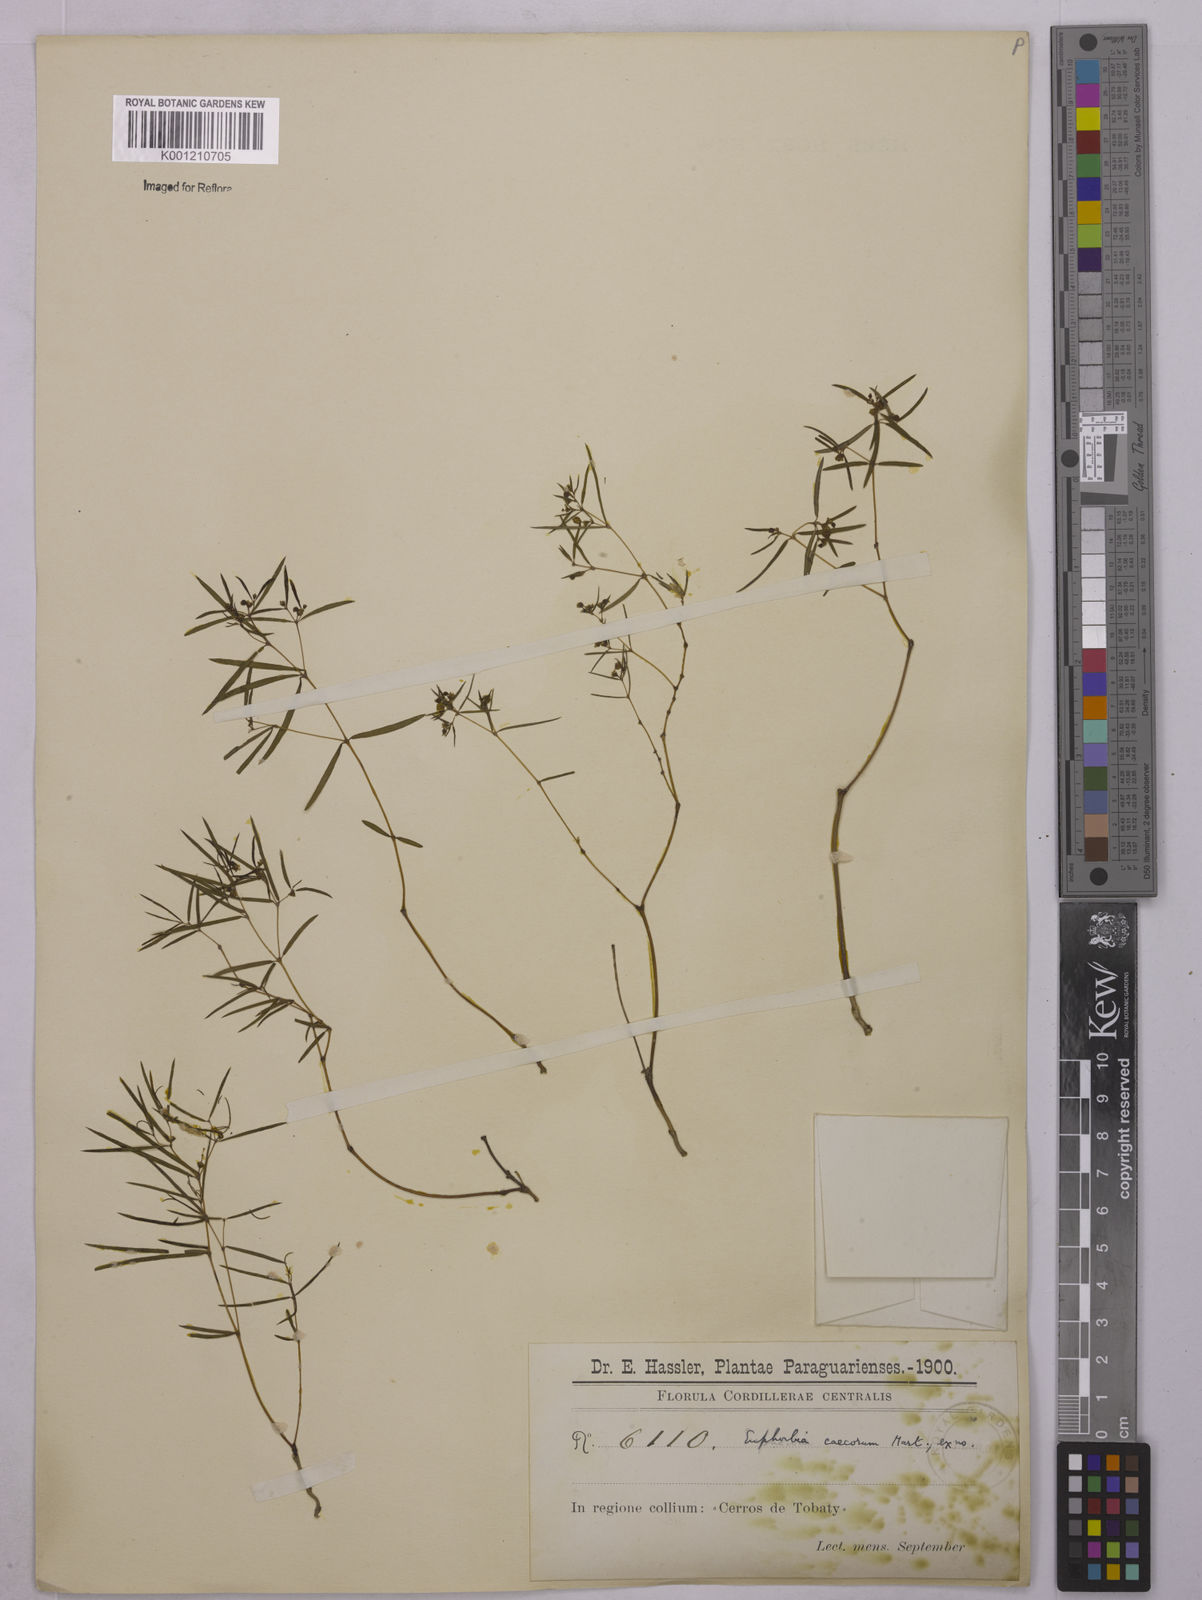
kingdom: Plantae
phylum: Tracheophyta
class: Magnoliopsida
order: Malpighiales
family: Euphorbiaceae
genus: Euphorbia
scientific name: Euphorbia potentilloides
